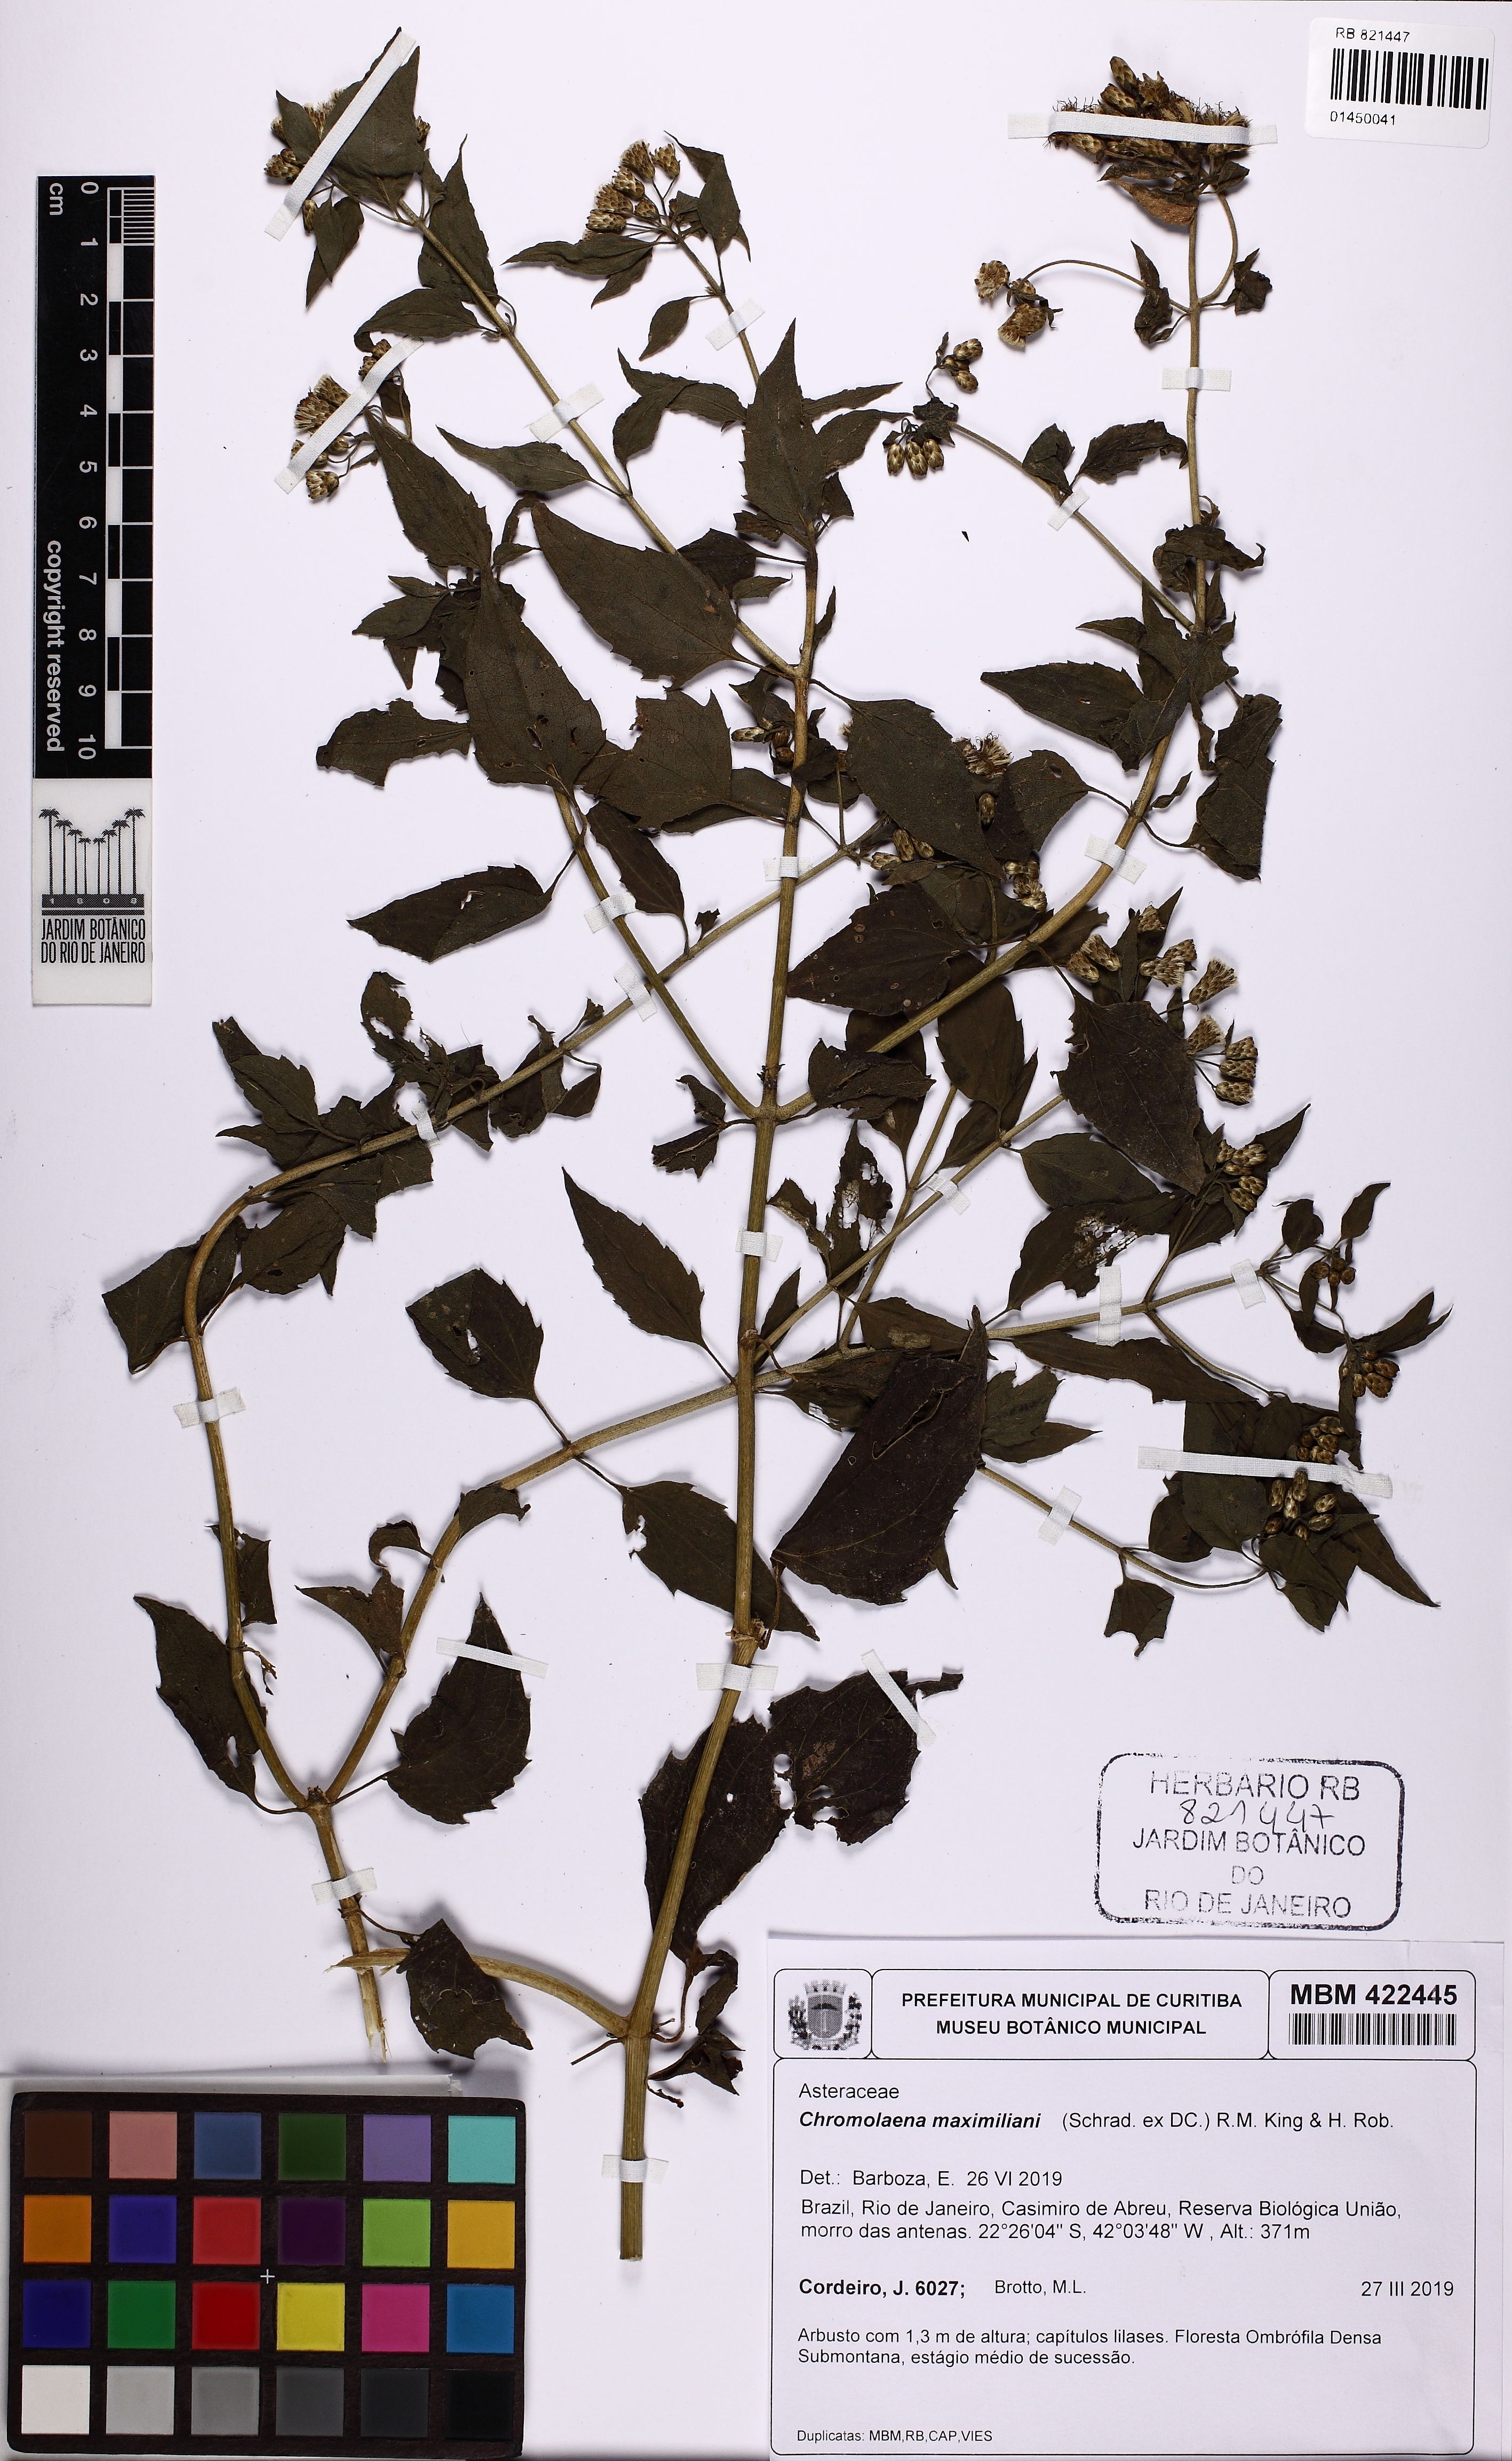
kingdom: Plantae
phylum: Tracheophyta
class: Magnoliopsida
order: Asterales
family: Asteraceae
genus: Chromolaena
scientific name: Chromolaena maximiliani
